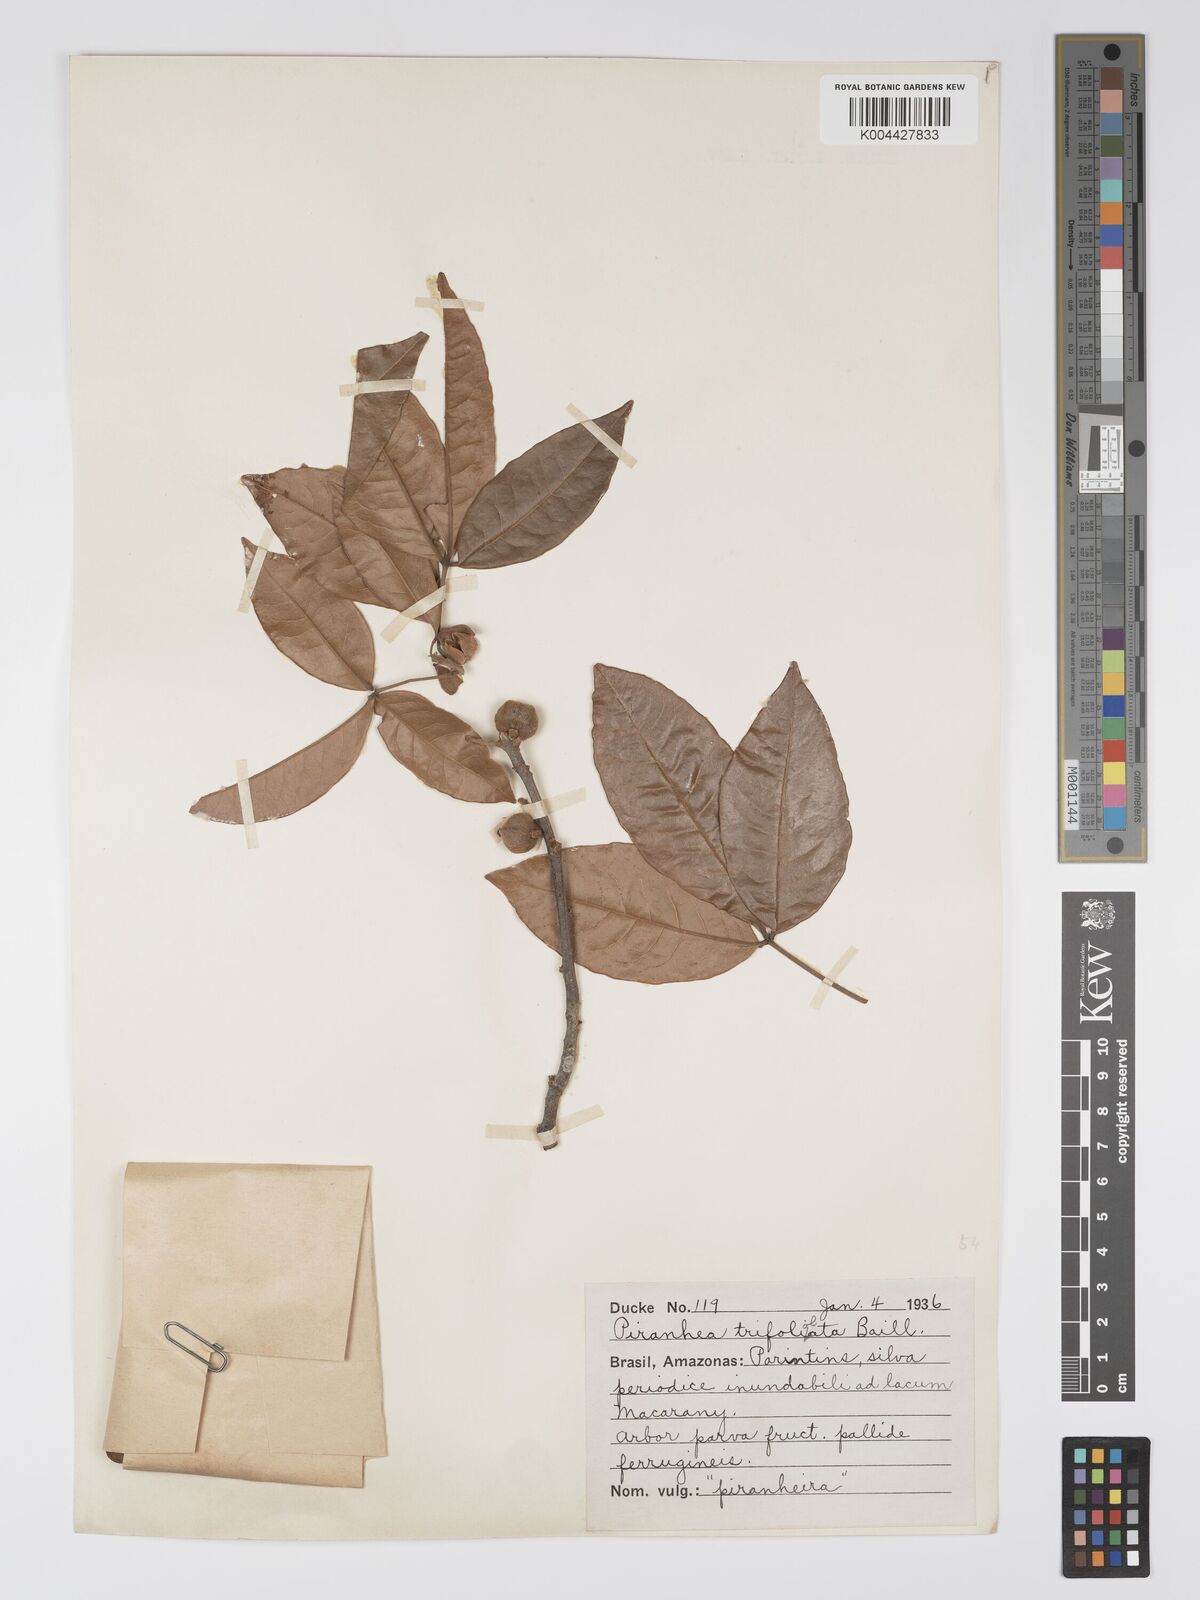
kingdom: Plantae
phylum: Tracheophyta
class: Magnoliopsida
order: Malpighiales
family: Picrodendraceae
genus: Piranhea
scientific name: Piranhea trifoliolata
